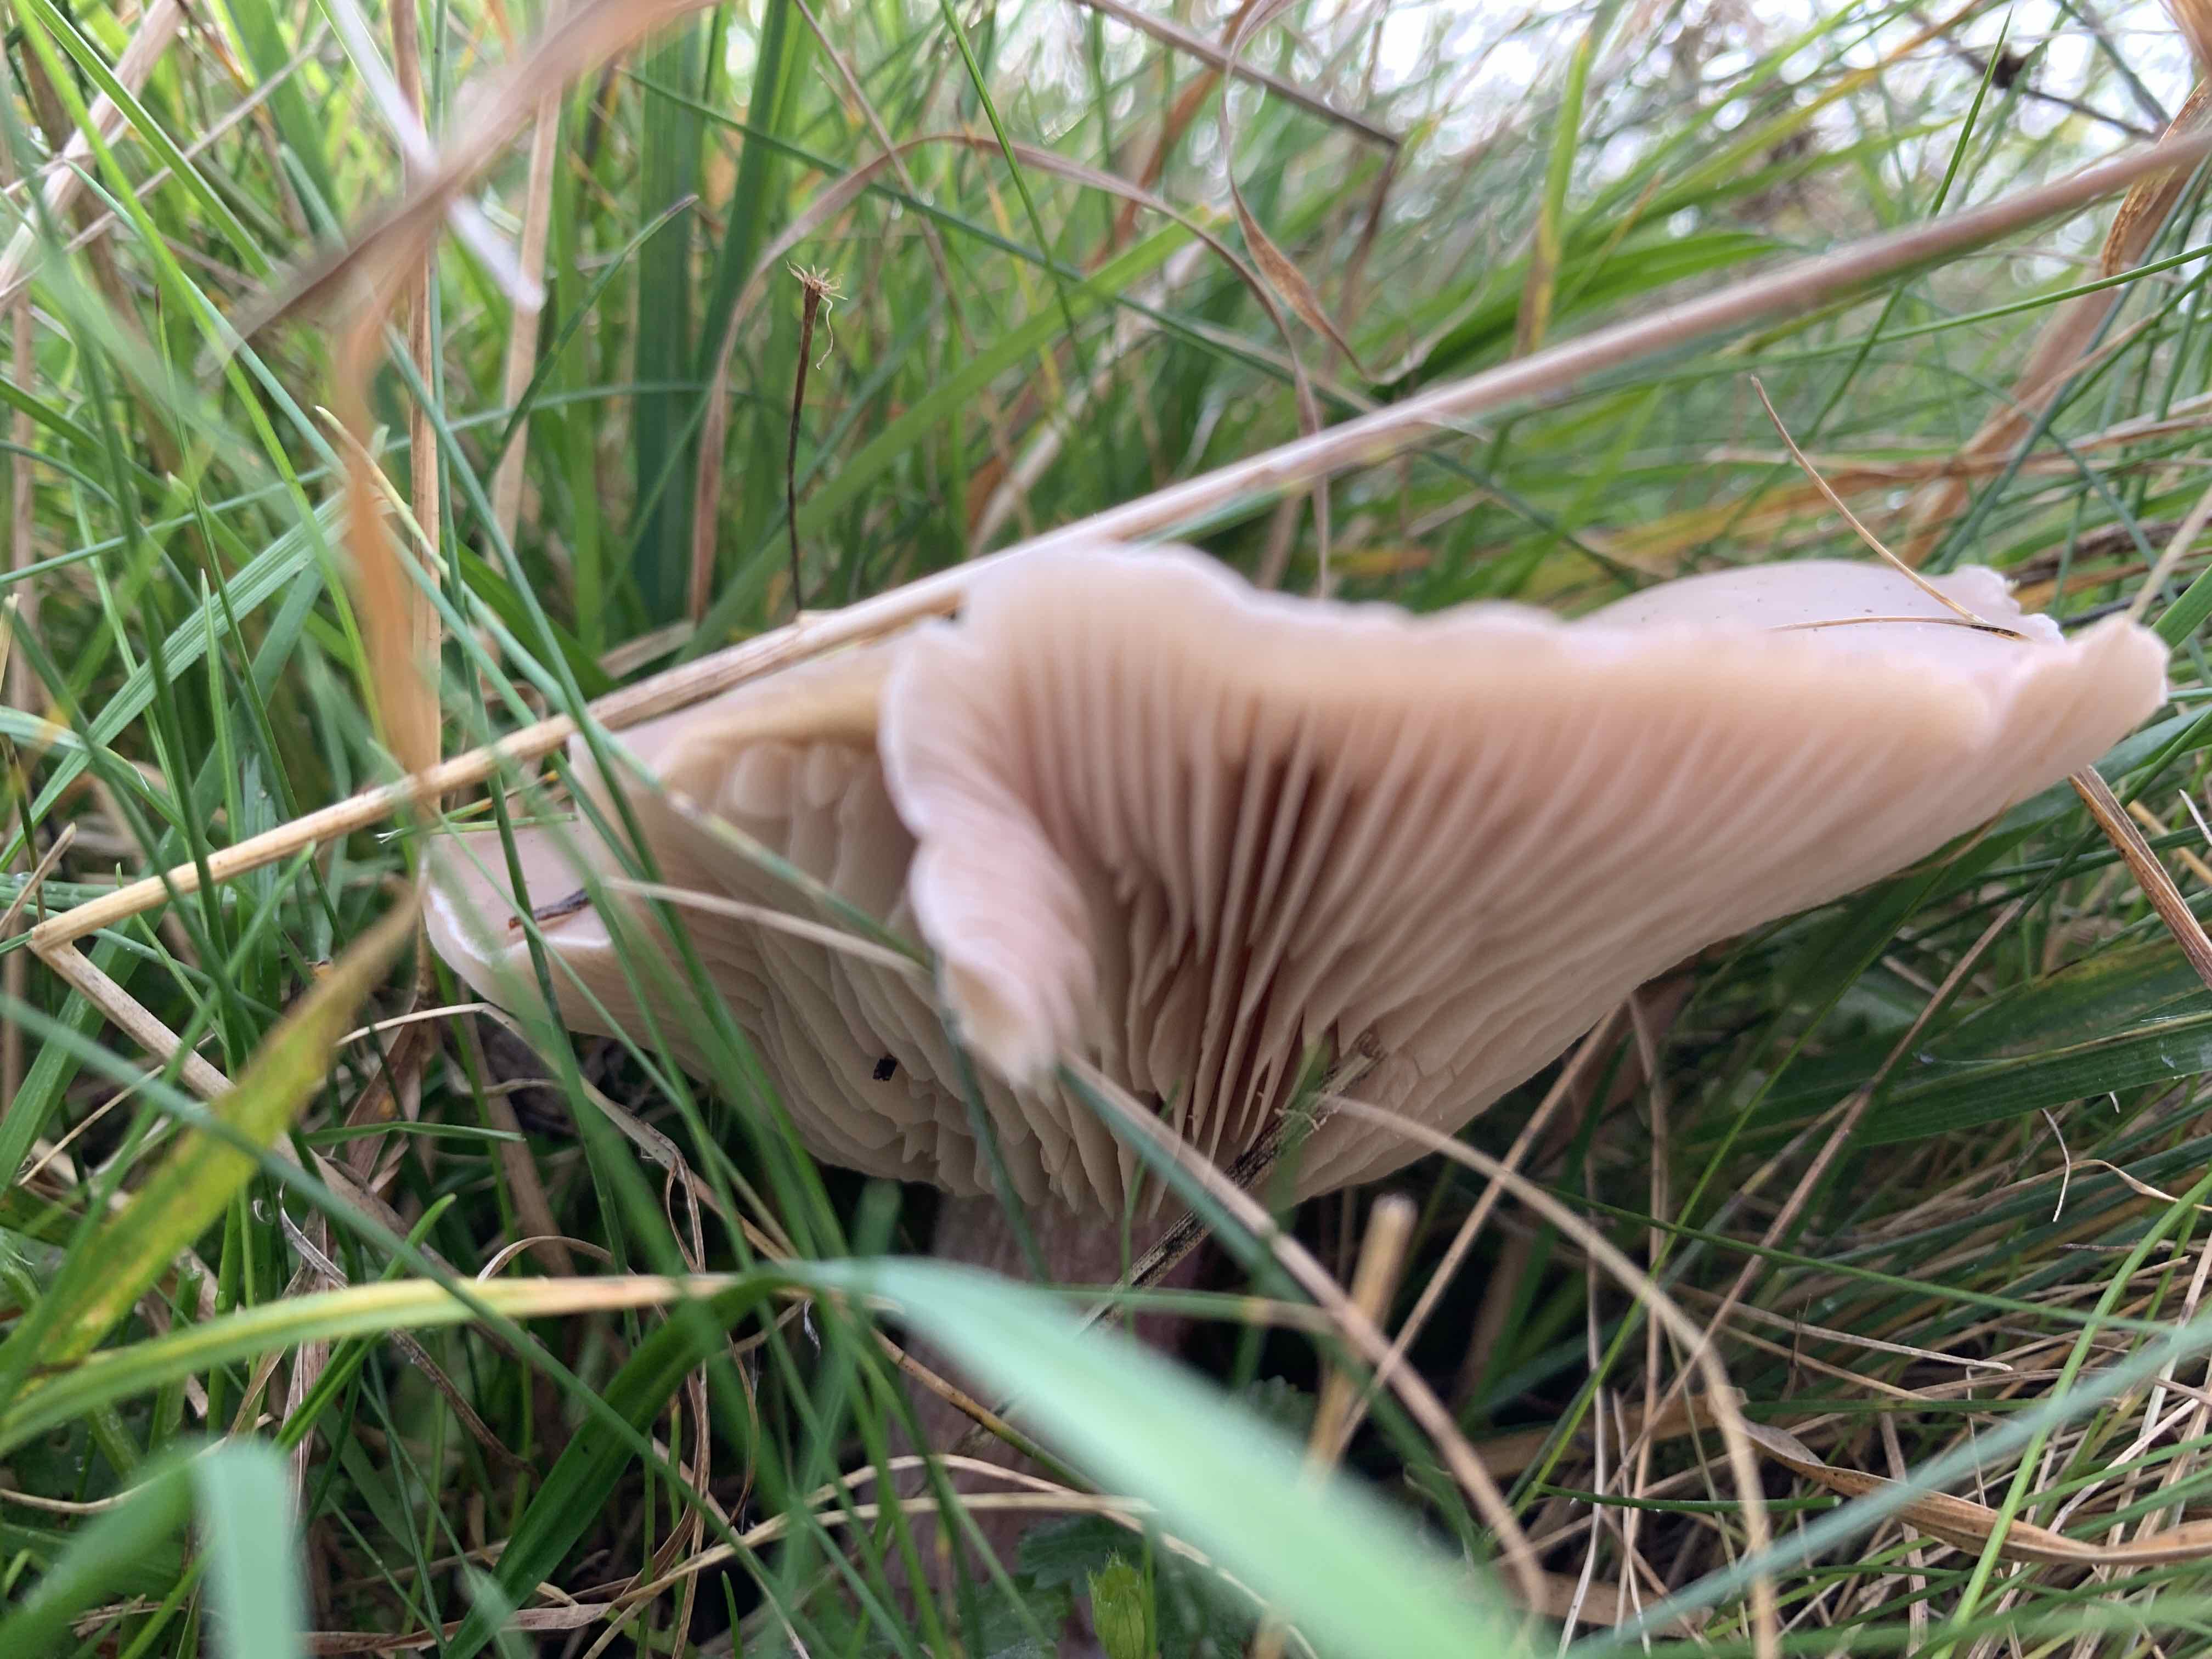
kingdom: Fungi
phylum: Basidiomycota
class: Agaricomycetes
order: Agaricales
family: Tricholomataceae
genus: Lepista
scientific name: Lepista personata
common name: bleg hekseringshat
